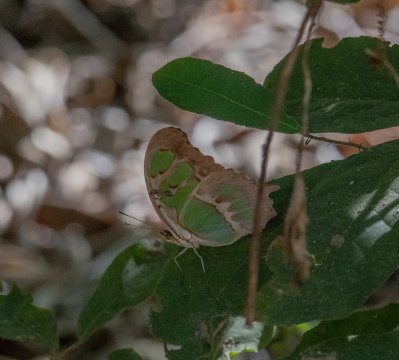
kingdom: Animalia
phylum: Arthropoda
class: Insecta
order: Lepidoptera
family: Nymphalidae
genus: Siproeta
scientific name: Siproeta stelenes
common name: Malachite
